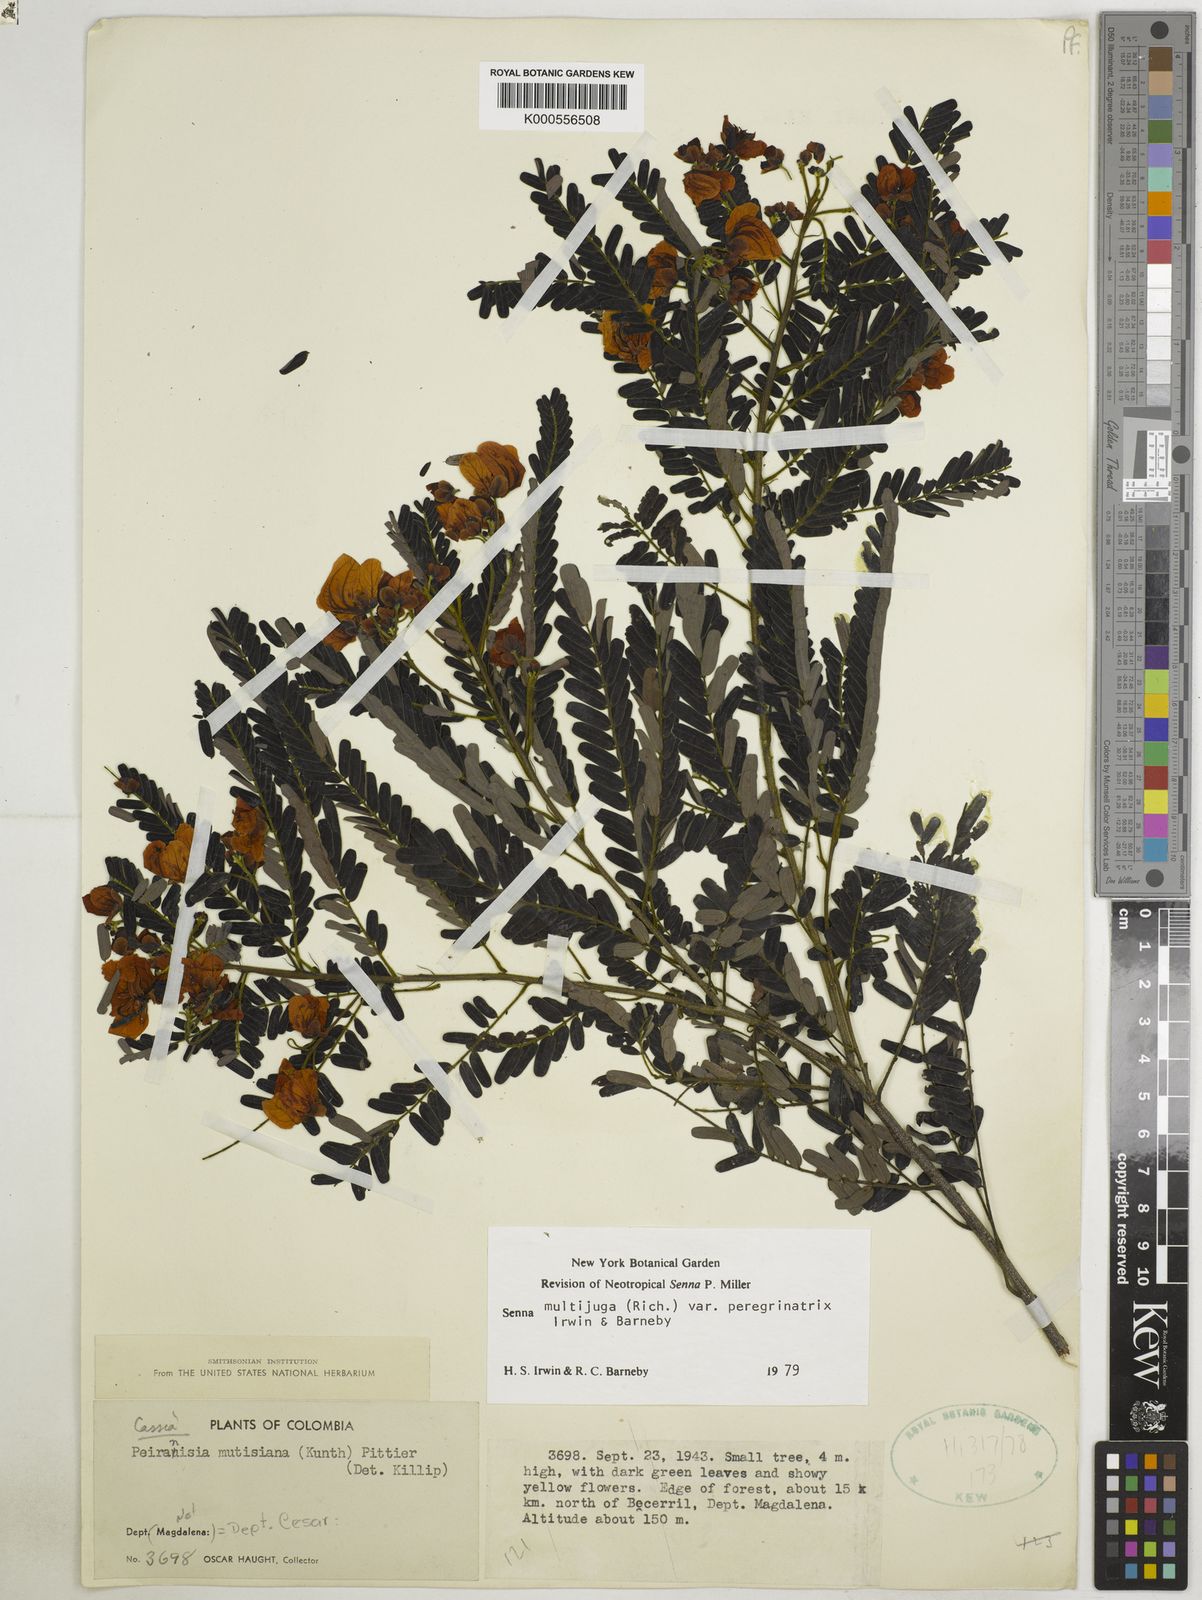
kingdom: Plantae
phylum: Tracheophyta
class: Magnoliopsida
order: Fabales
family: Fabaceae
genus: Senna
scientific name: Senna multijuga
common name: False sicklepod
